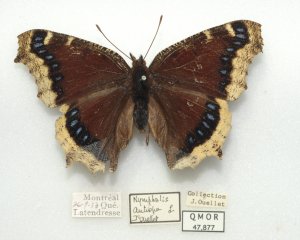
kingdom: Animalia
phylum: Arthropoda
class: Insecta
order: Lepidoptera
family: Nymphalidae
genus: Nymphalis
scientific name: Nymphalis antiopa
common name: Mourning Cloak
